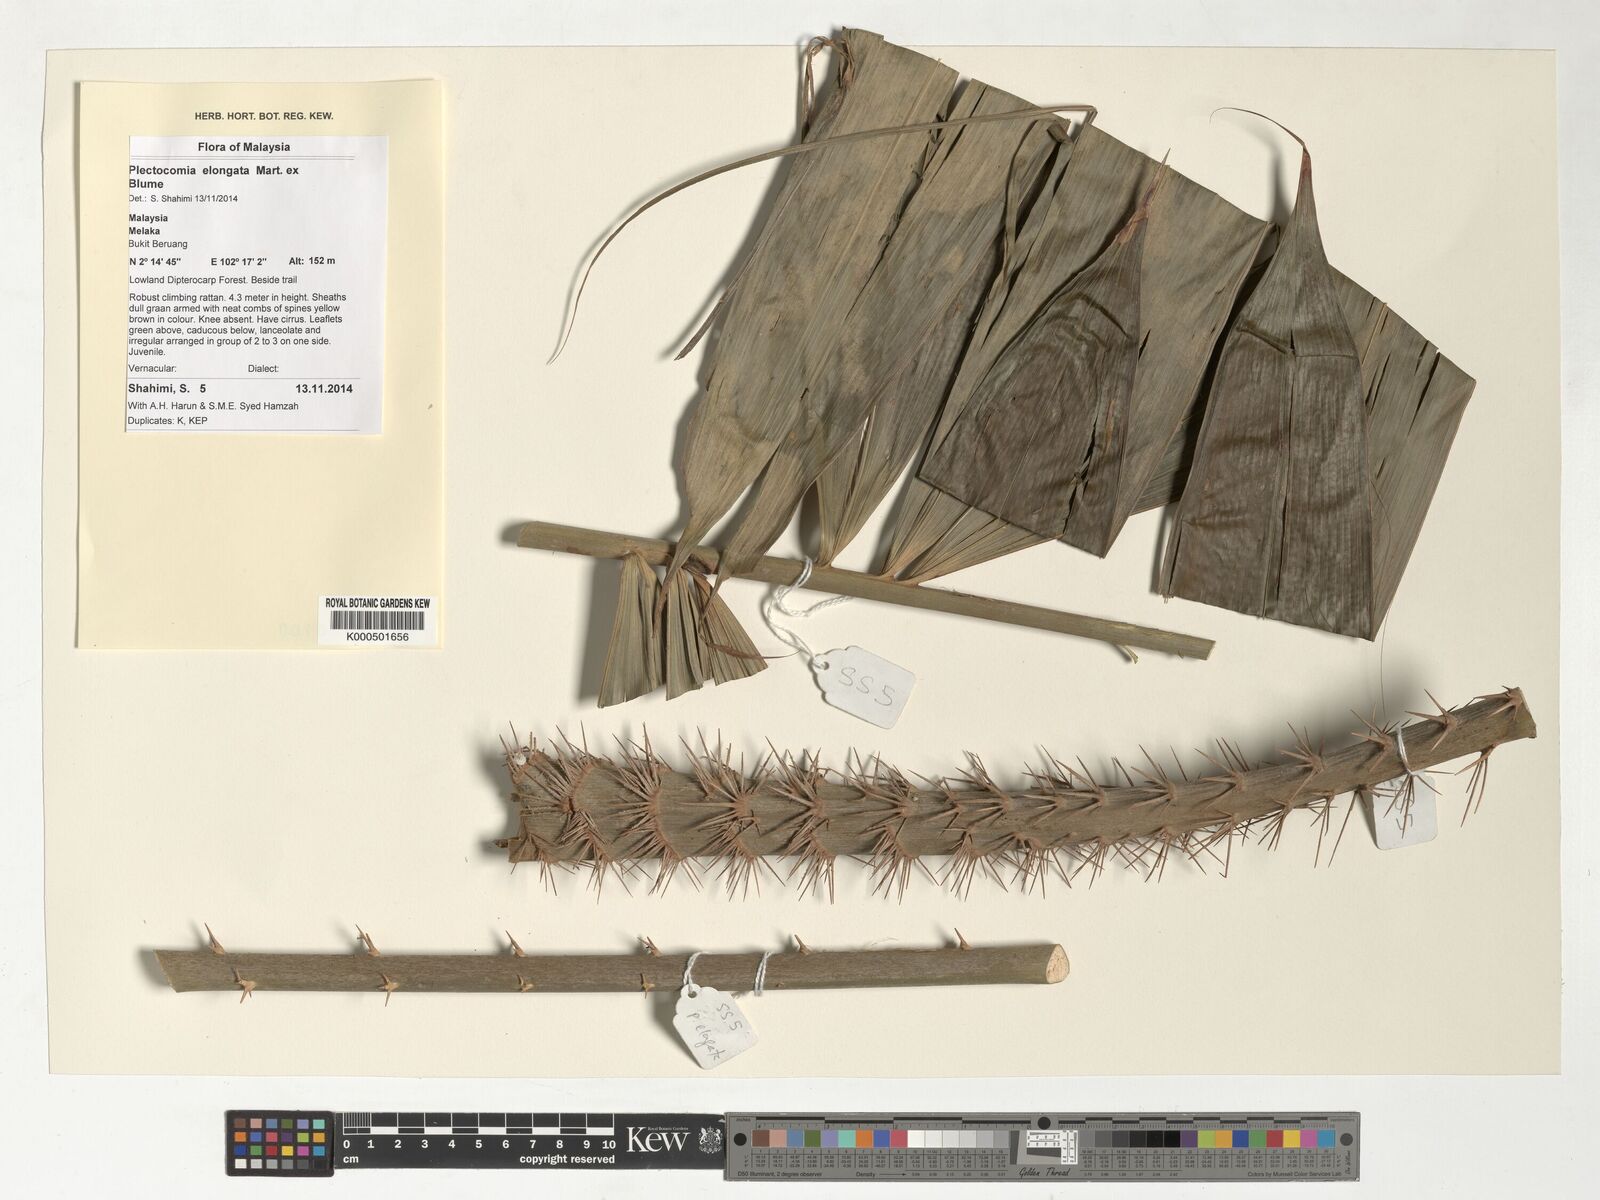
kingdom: Plantae
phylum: Tracheophyta
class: Liliopsida
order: Arecales
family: Arecaceae
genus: Plectocomia
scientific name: Plectocomia elongata
